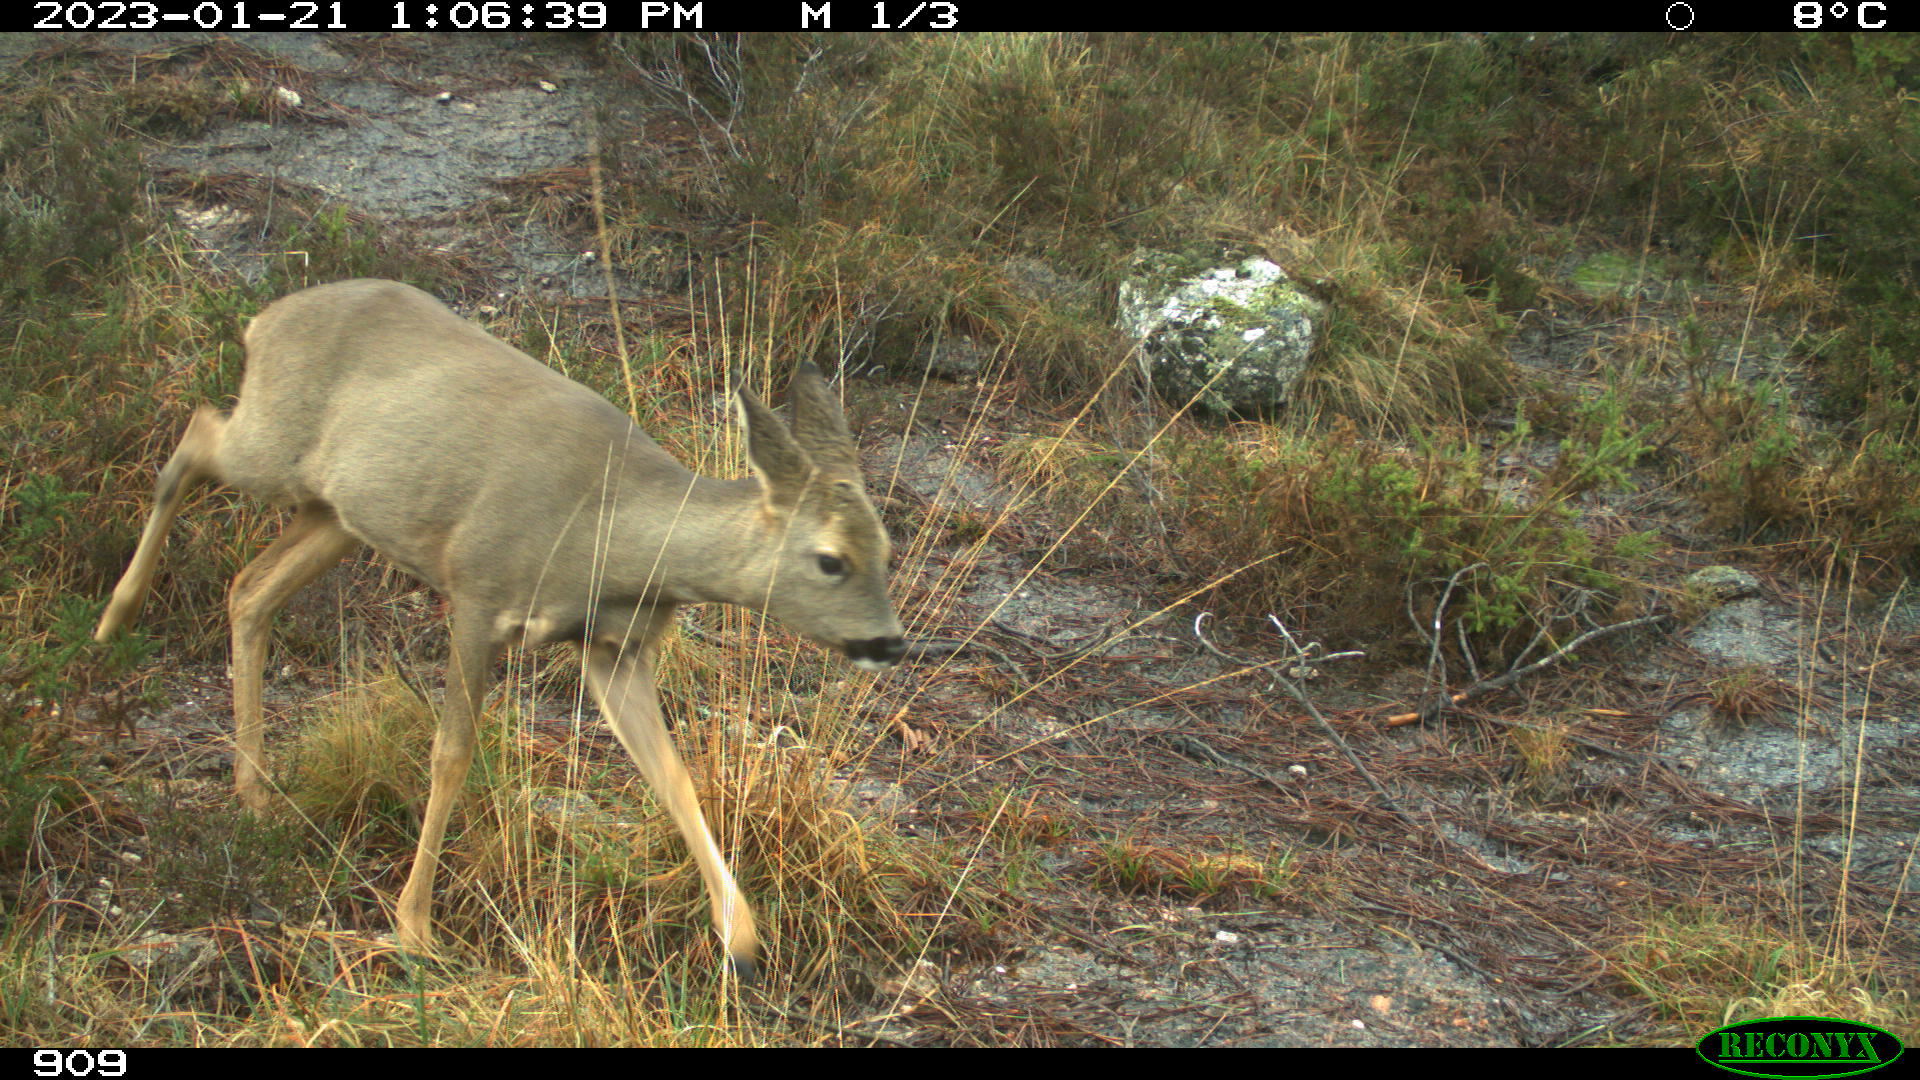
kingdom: Animalia
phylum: Chordata
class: Mammalia
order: Artiodactyla
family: Cervidae
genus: Capreolus
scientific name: Capreolus capreolus
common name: Western roe deer
